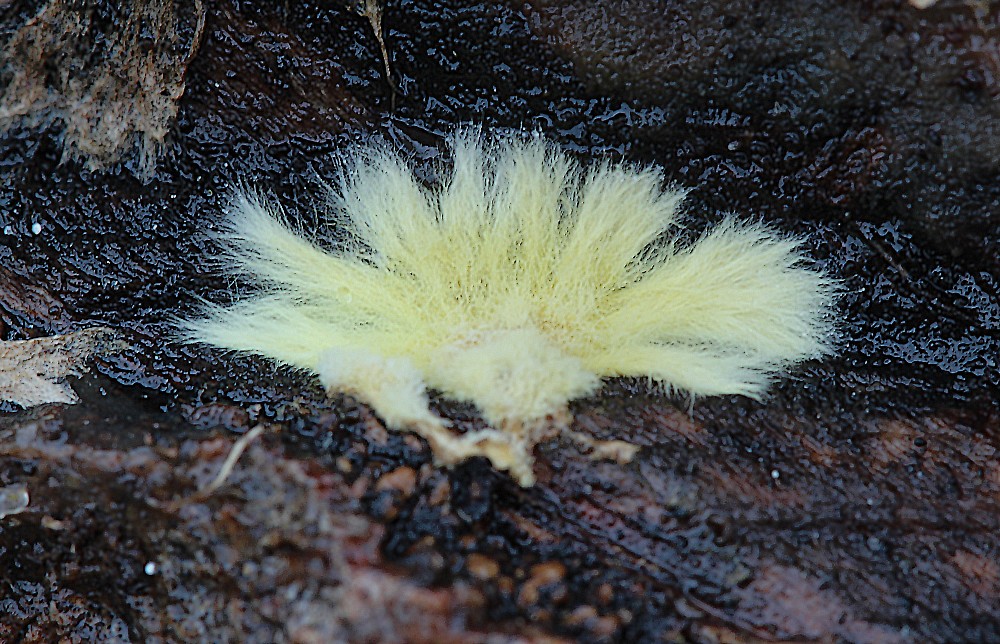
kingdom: Fungi
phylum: Basidiomycota
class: Agaricomycetes
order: Russulales
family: Xenasmataceae
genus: Xenasmatella
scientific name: Xenasmatella vaga
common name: svovl-strenghinde
